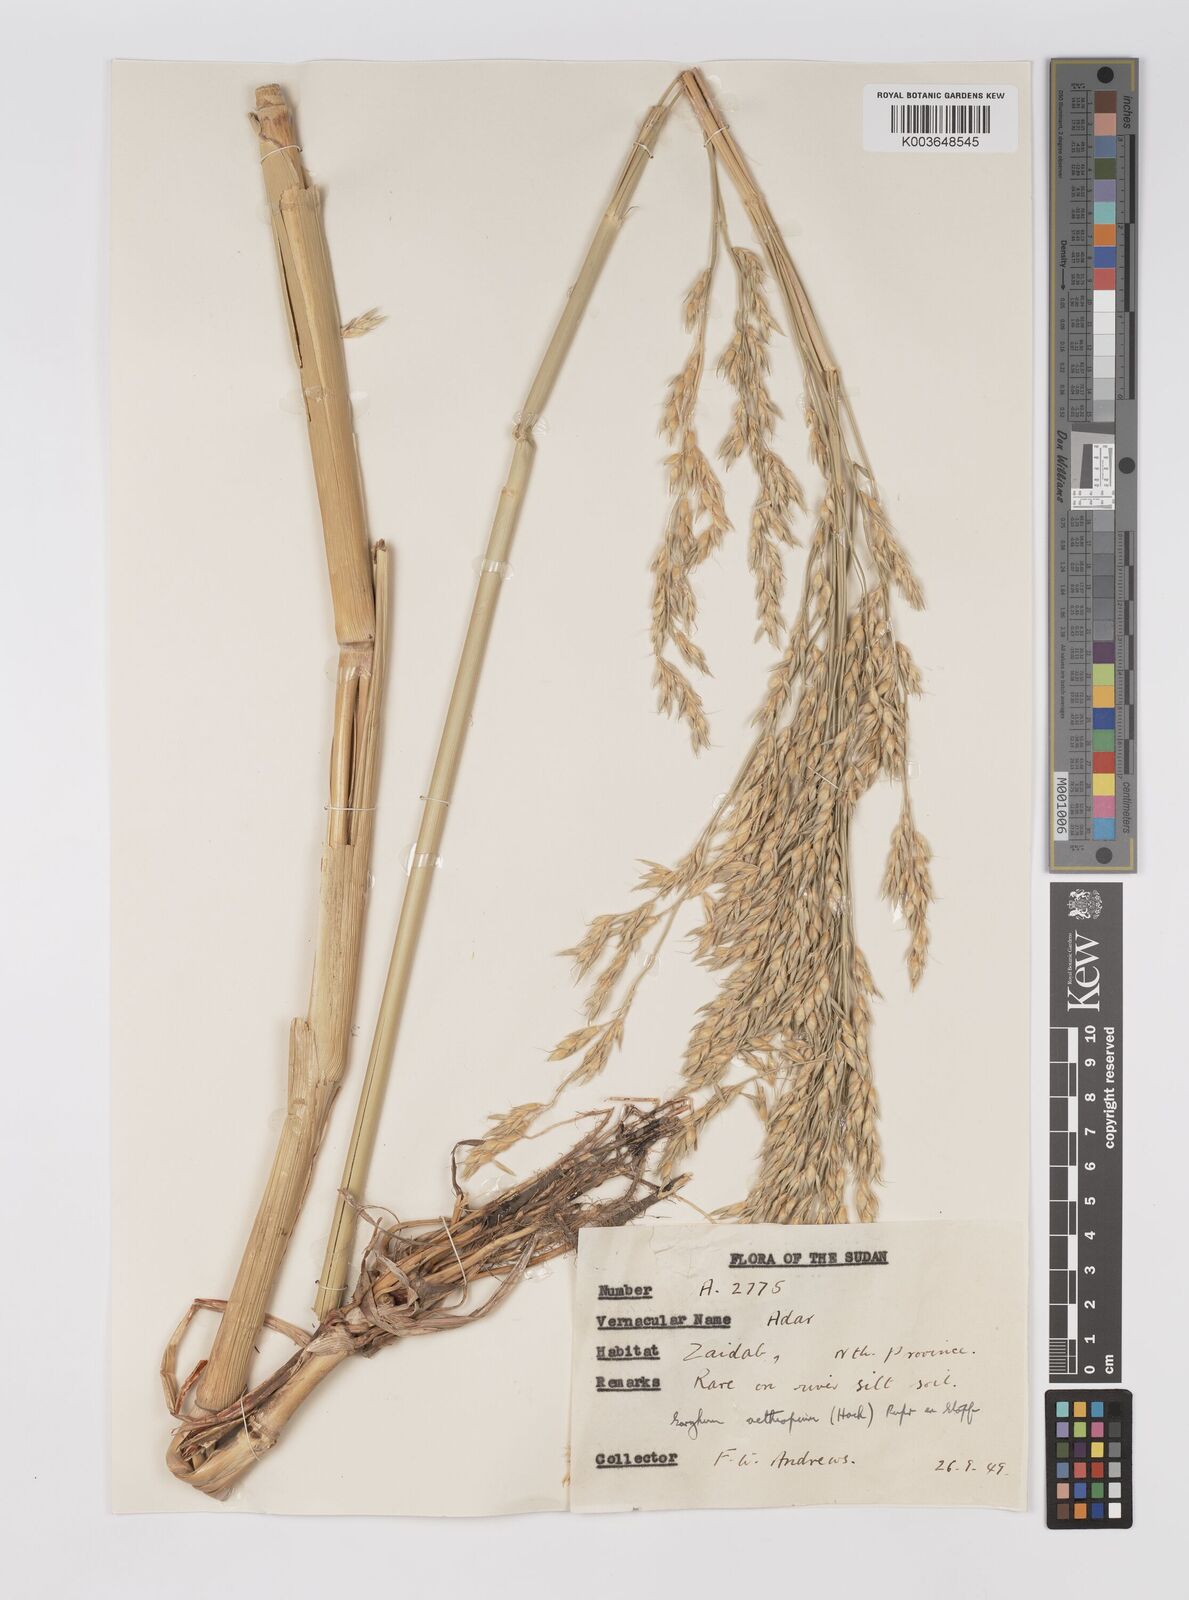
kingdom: Plantae
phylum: Tracheophyta
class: Liliopsida
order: Poales
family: Poaceae
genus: Sorghum
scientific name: Sorghum drummondii
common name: Sudangrass
